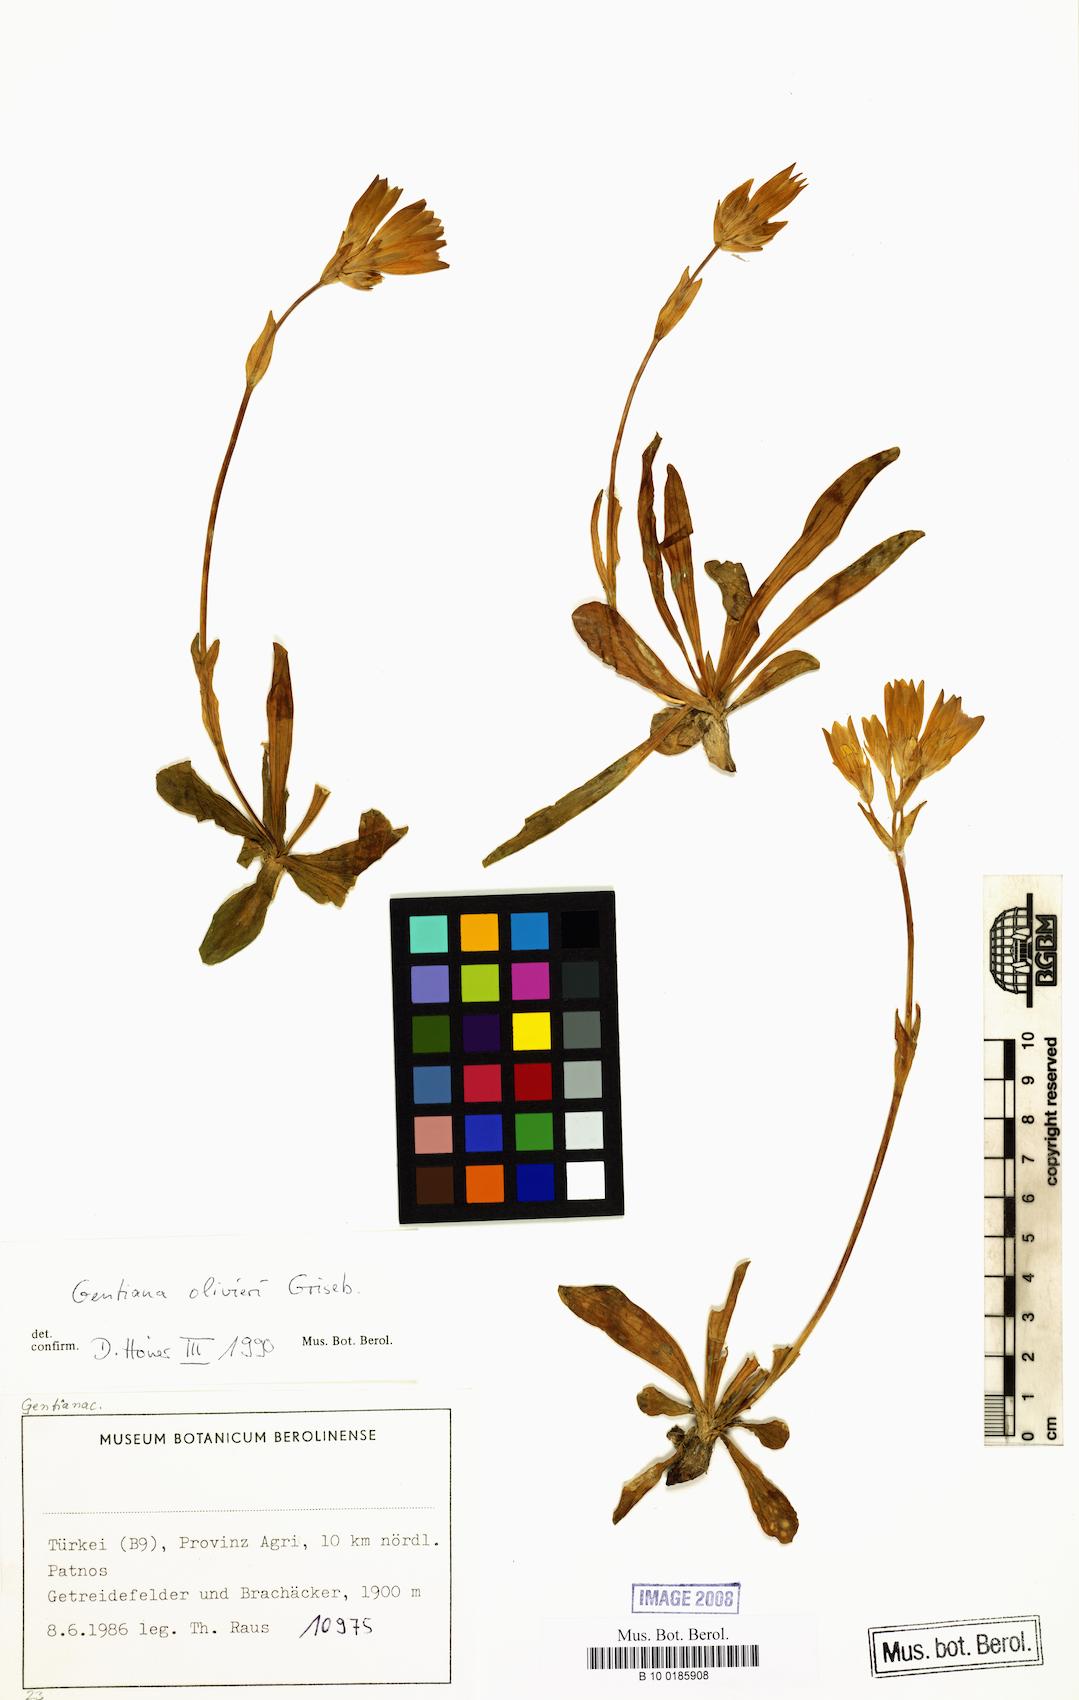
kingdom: Plantae
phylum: Tracheophyta
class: Magnoliopsida
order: Gentianales
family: Gentianaceae
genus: Gentiana
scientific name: Gentiana olivieri
